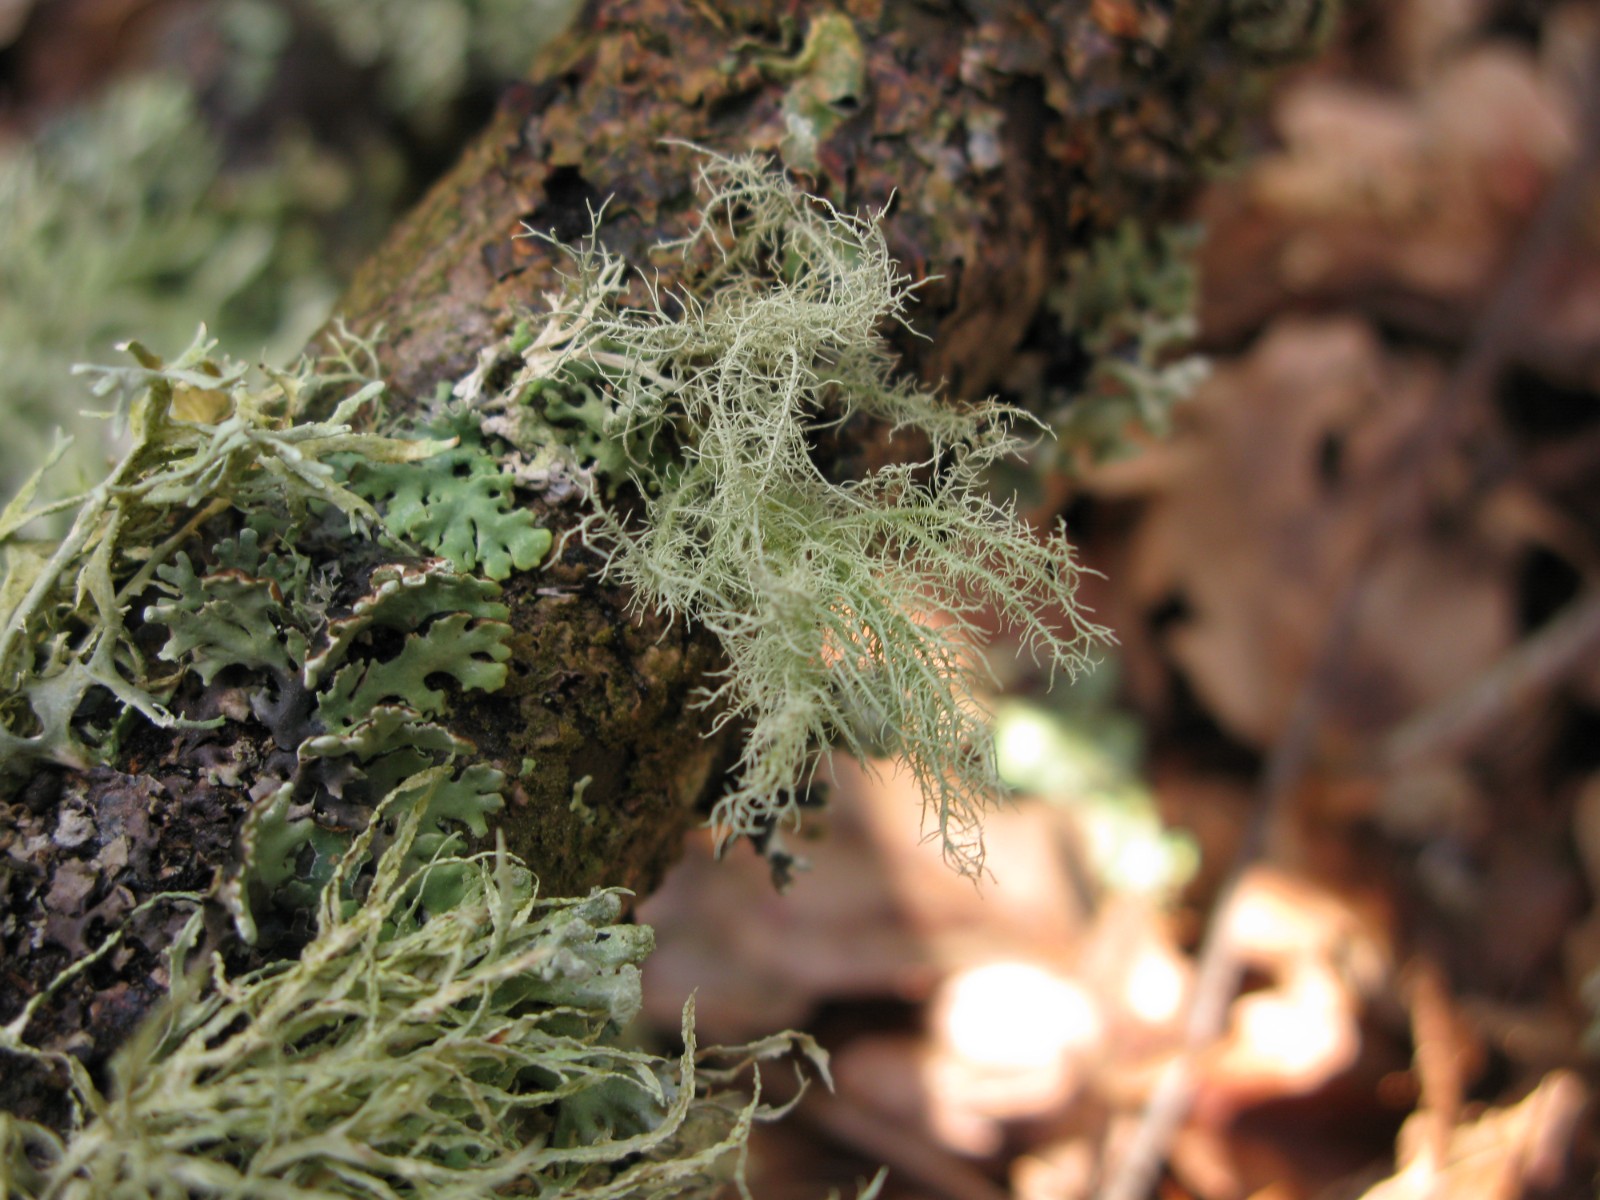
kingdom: Fungi
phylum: Ascomycota
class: Lecanoromycetes
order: Lecanorales
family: Parmeliaceae
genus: Usnea
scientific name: Usnea hirta
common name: liden skæglav
